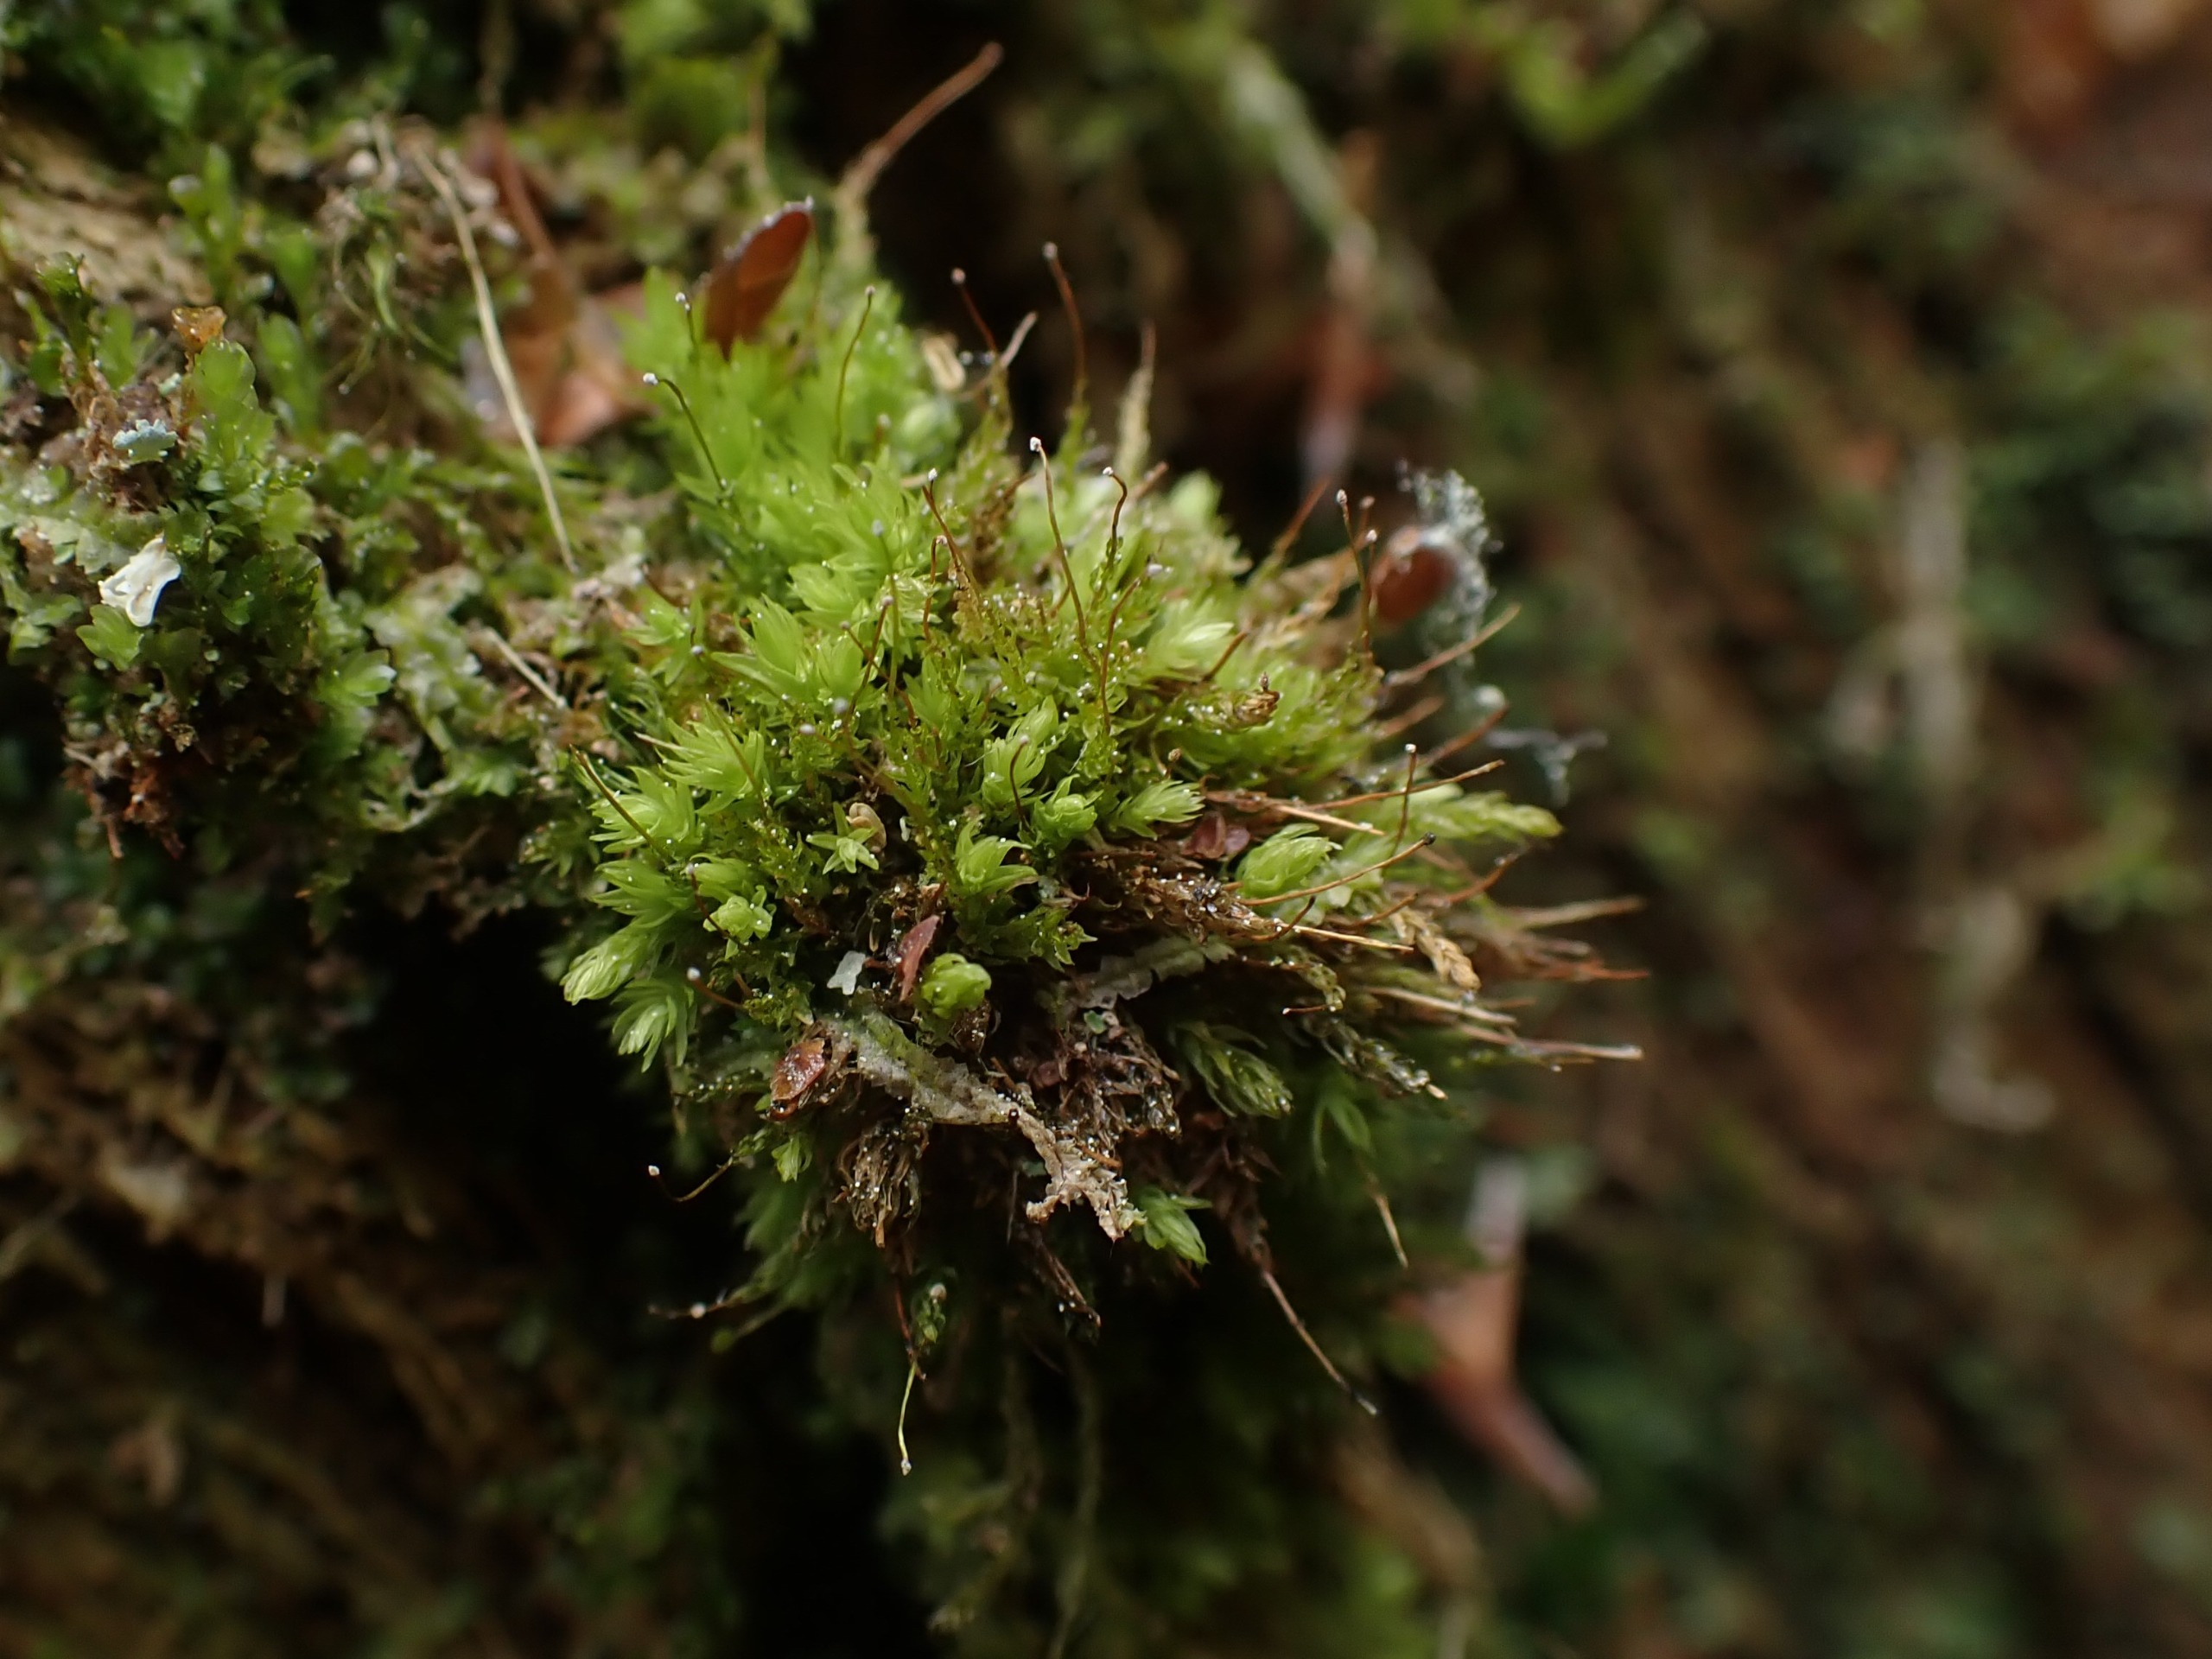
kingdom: Plantae
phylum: Bryophyta
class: Bryopsida
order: Aulacomniales
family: Aulacomniaceae
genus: Aulacomnium
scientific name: Aulacomnium androgynum
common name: Kugle-filtmos
